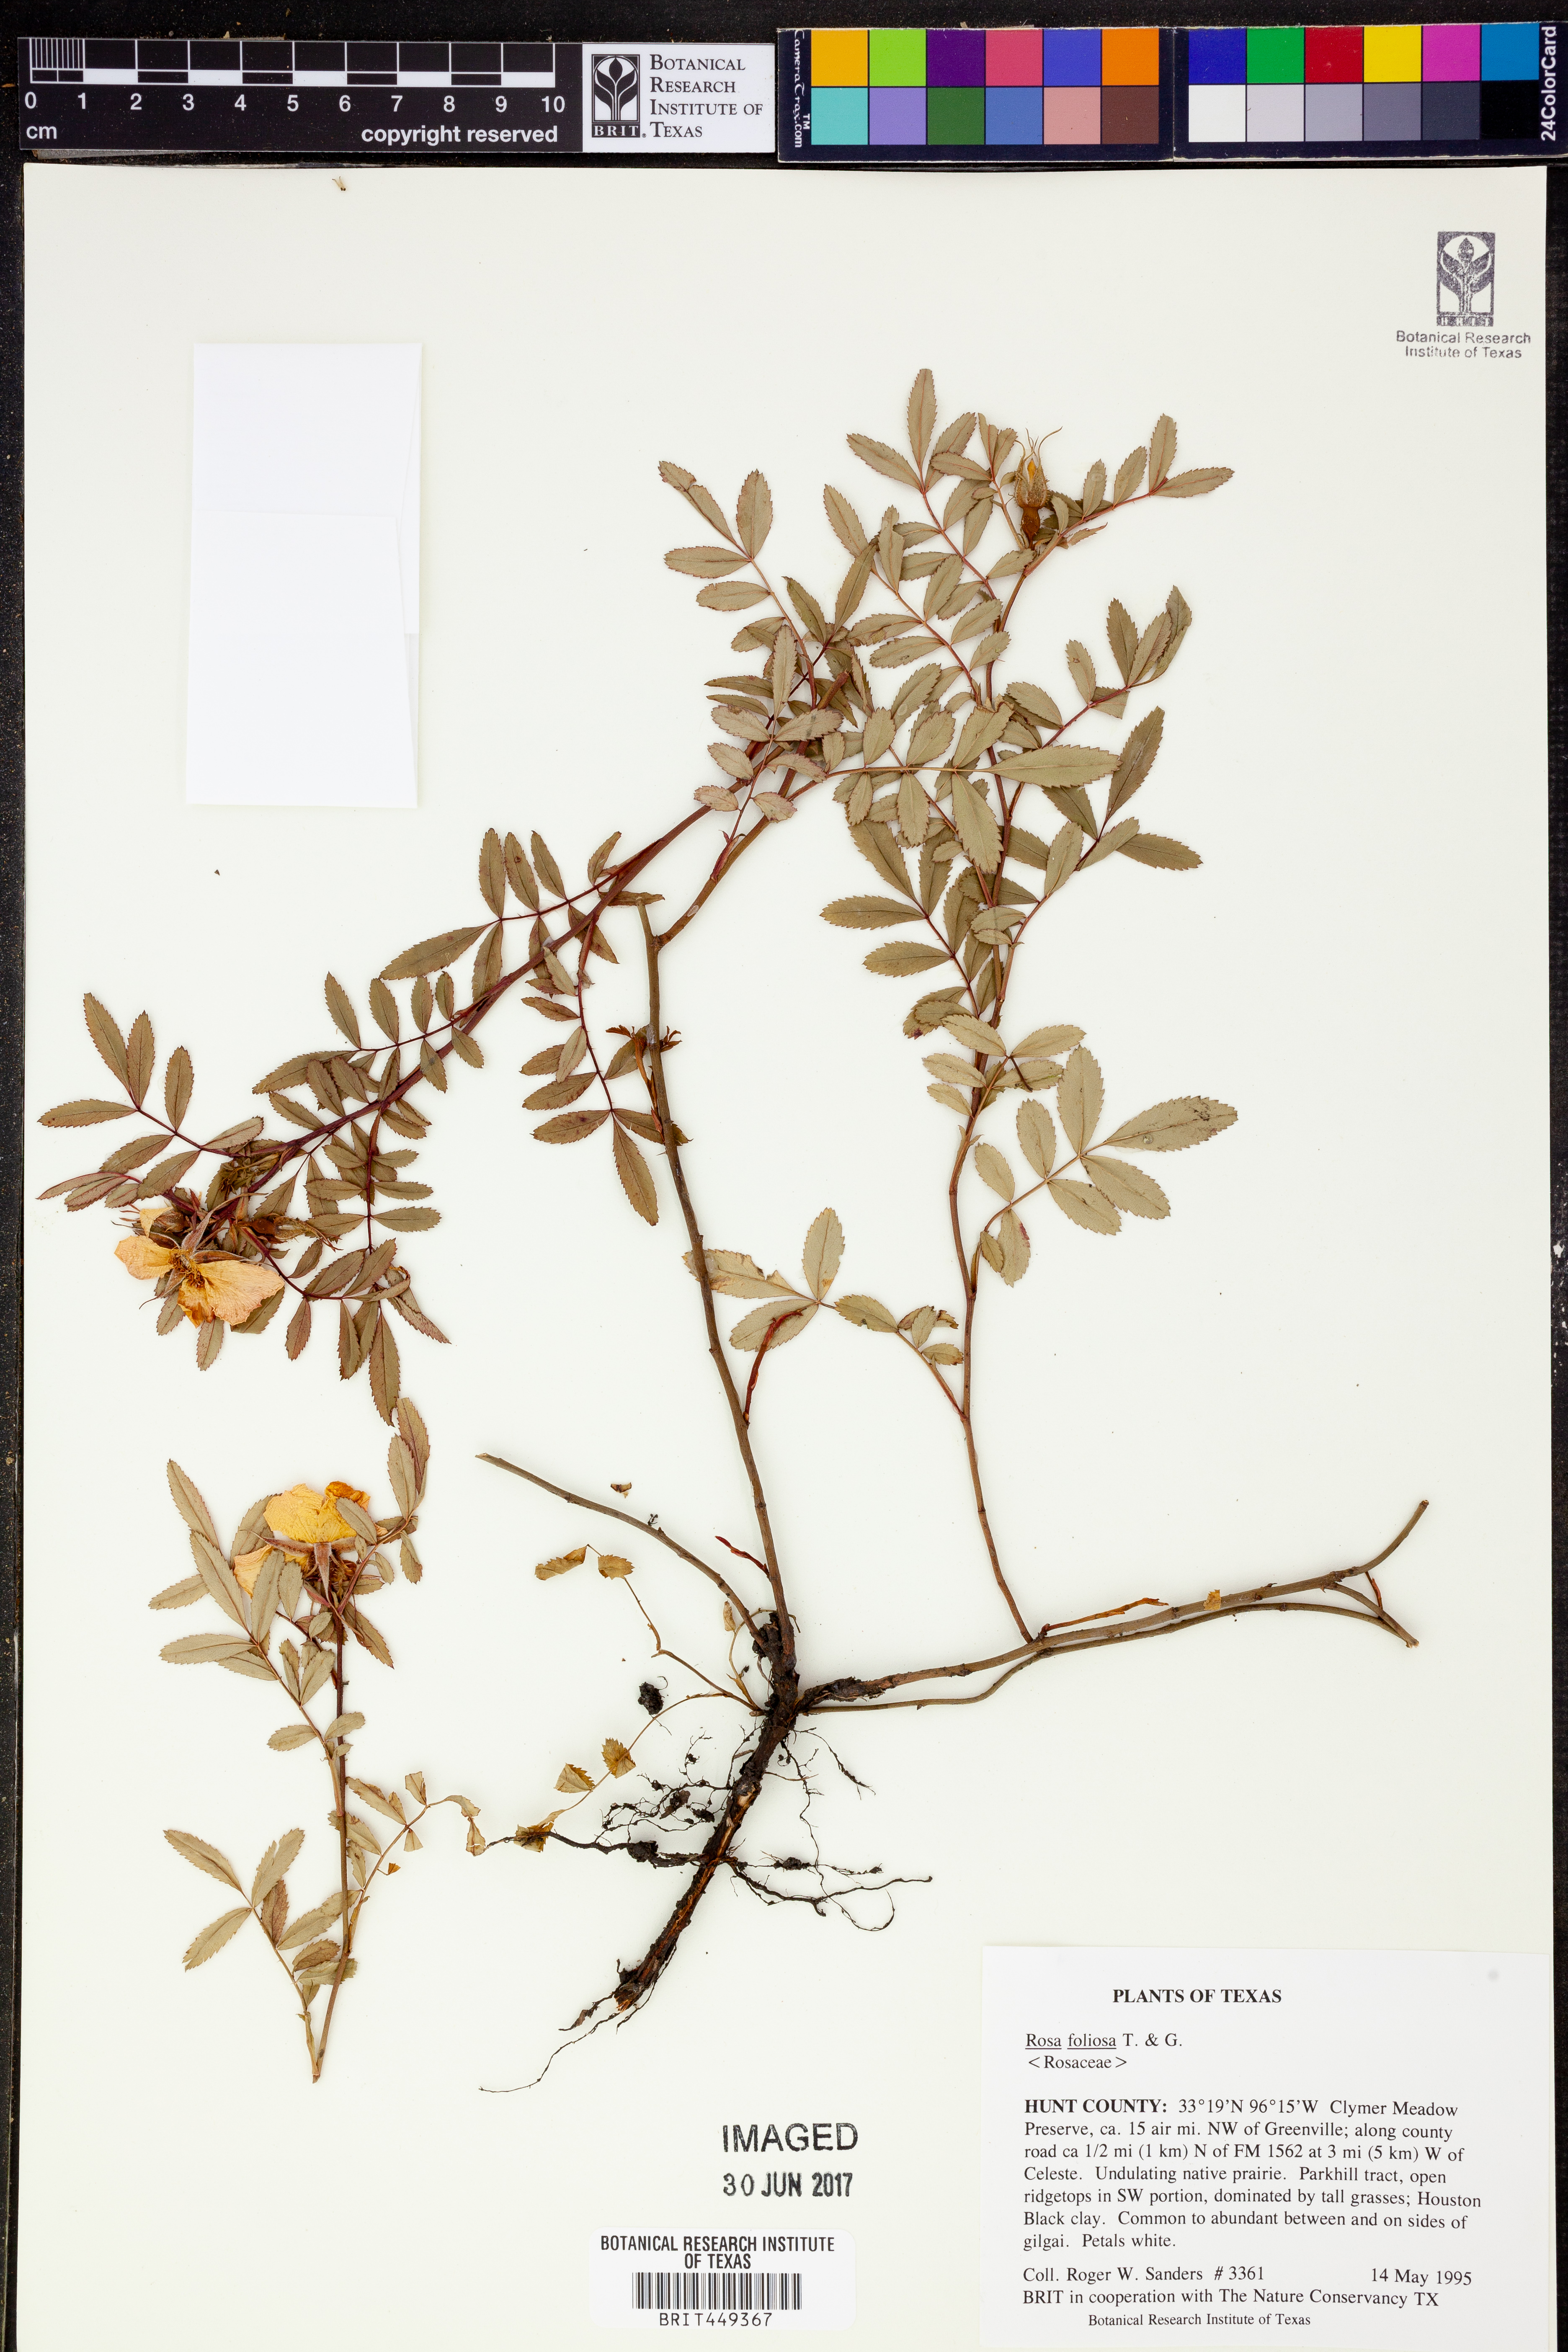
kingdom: Plantae
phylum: Tracheophyta
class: Magnoliopsida
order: Rosales
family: Rosaceae
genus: Rosa
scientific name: Rosa foliolosa
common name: White prairie rose
